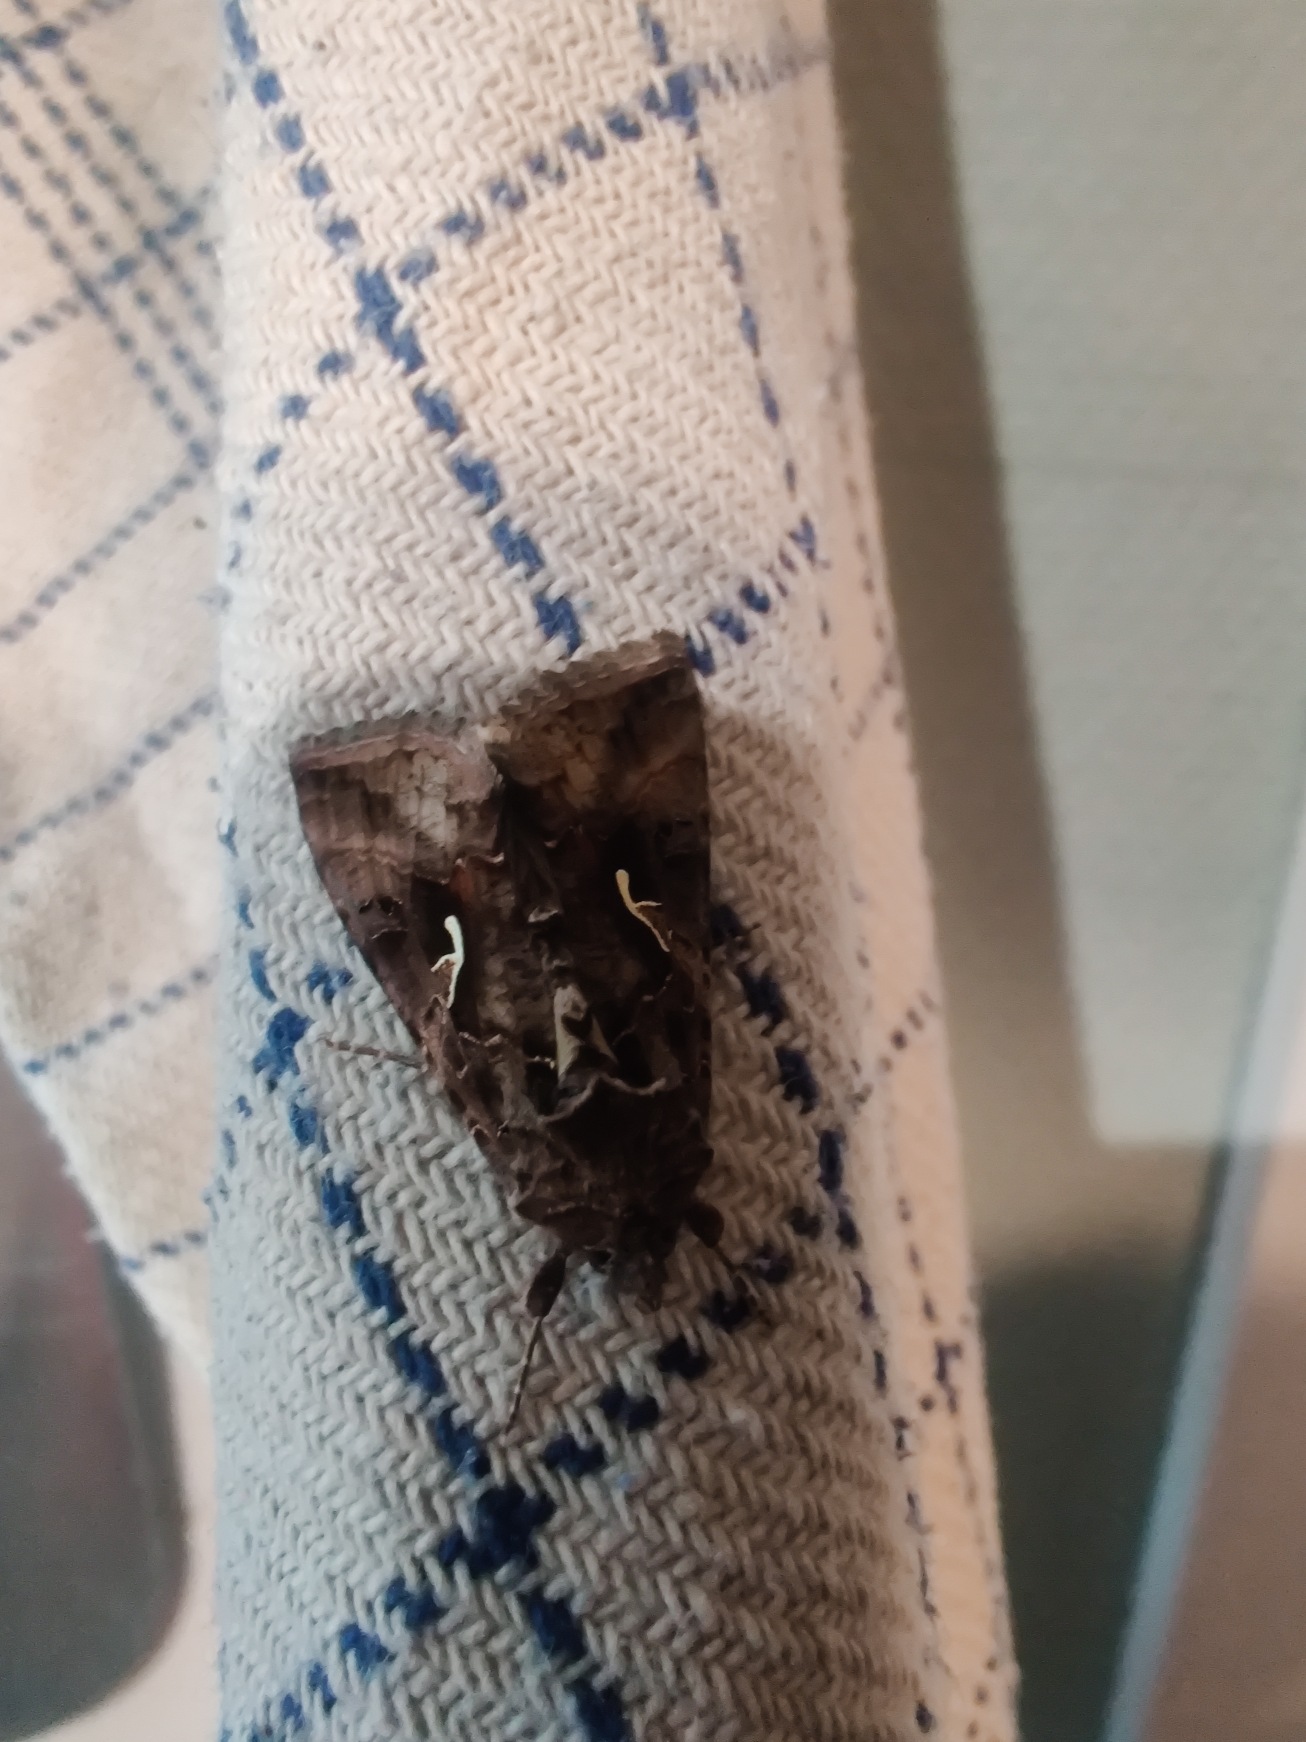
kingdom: Animalia
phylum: Arthropoda
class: Insecta
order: Lepidoptera
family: Noctuidae
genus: Autographa
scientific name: Autographa gamma
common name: Gammaugle
